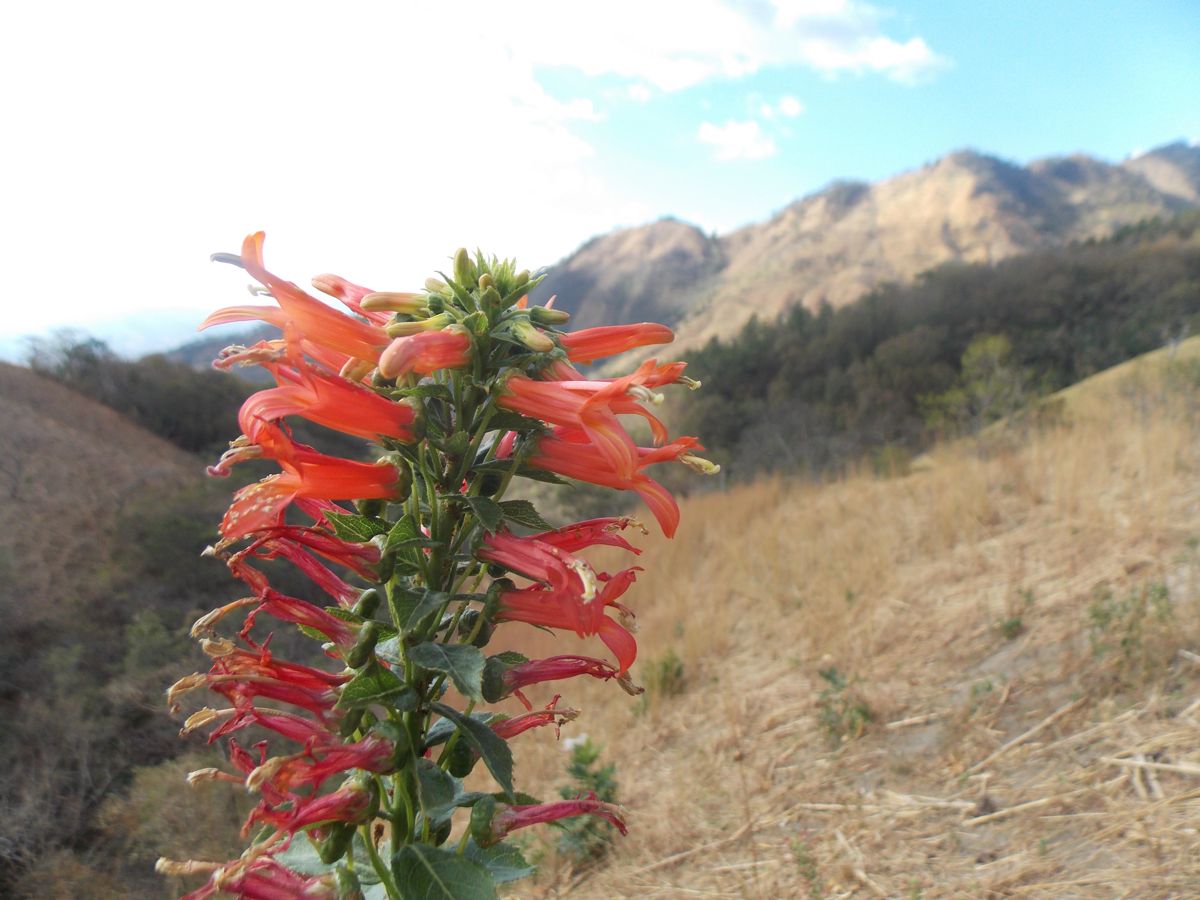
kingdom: Plantae
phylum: Tracheophyta
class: Magnoliopsida
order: Asterales
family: Campanulaceae
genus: Lobelia
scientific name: Lobelia laxiflora
